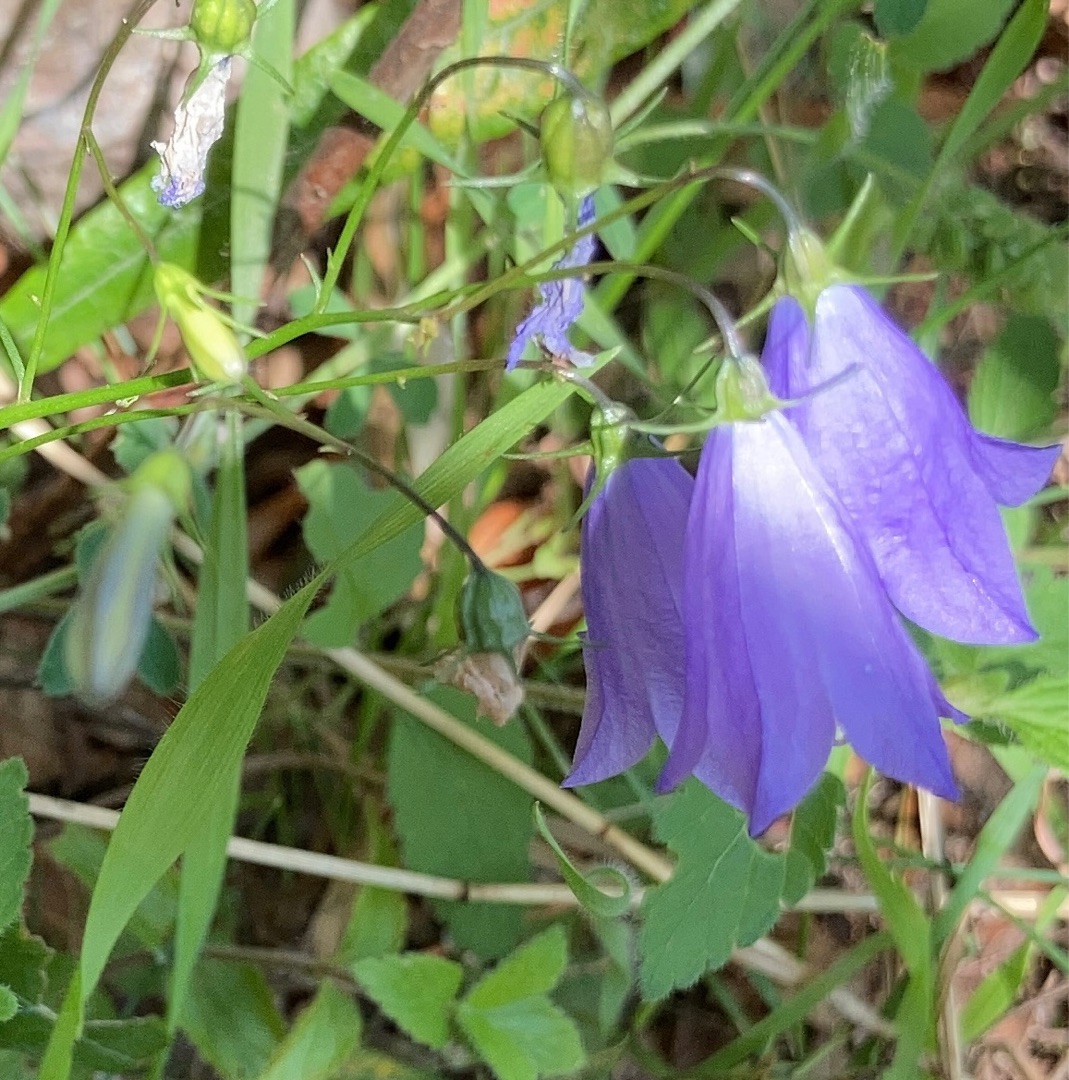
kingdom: Plantae
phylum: Tracheophyta
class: Magnoliopsida
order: Asterales
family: Campanulaceae
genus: Campanula
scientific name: Campanula rotundifolia
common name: Liden klokke
